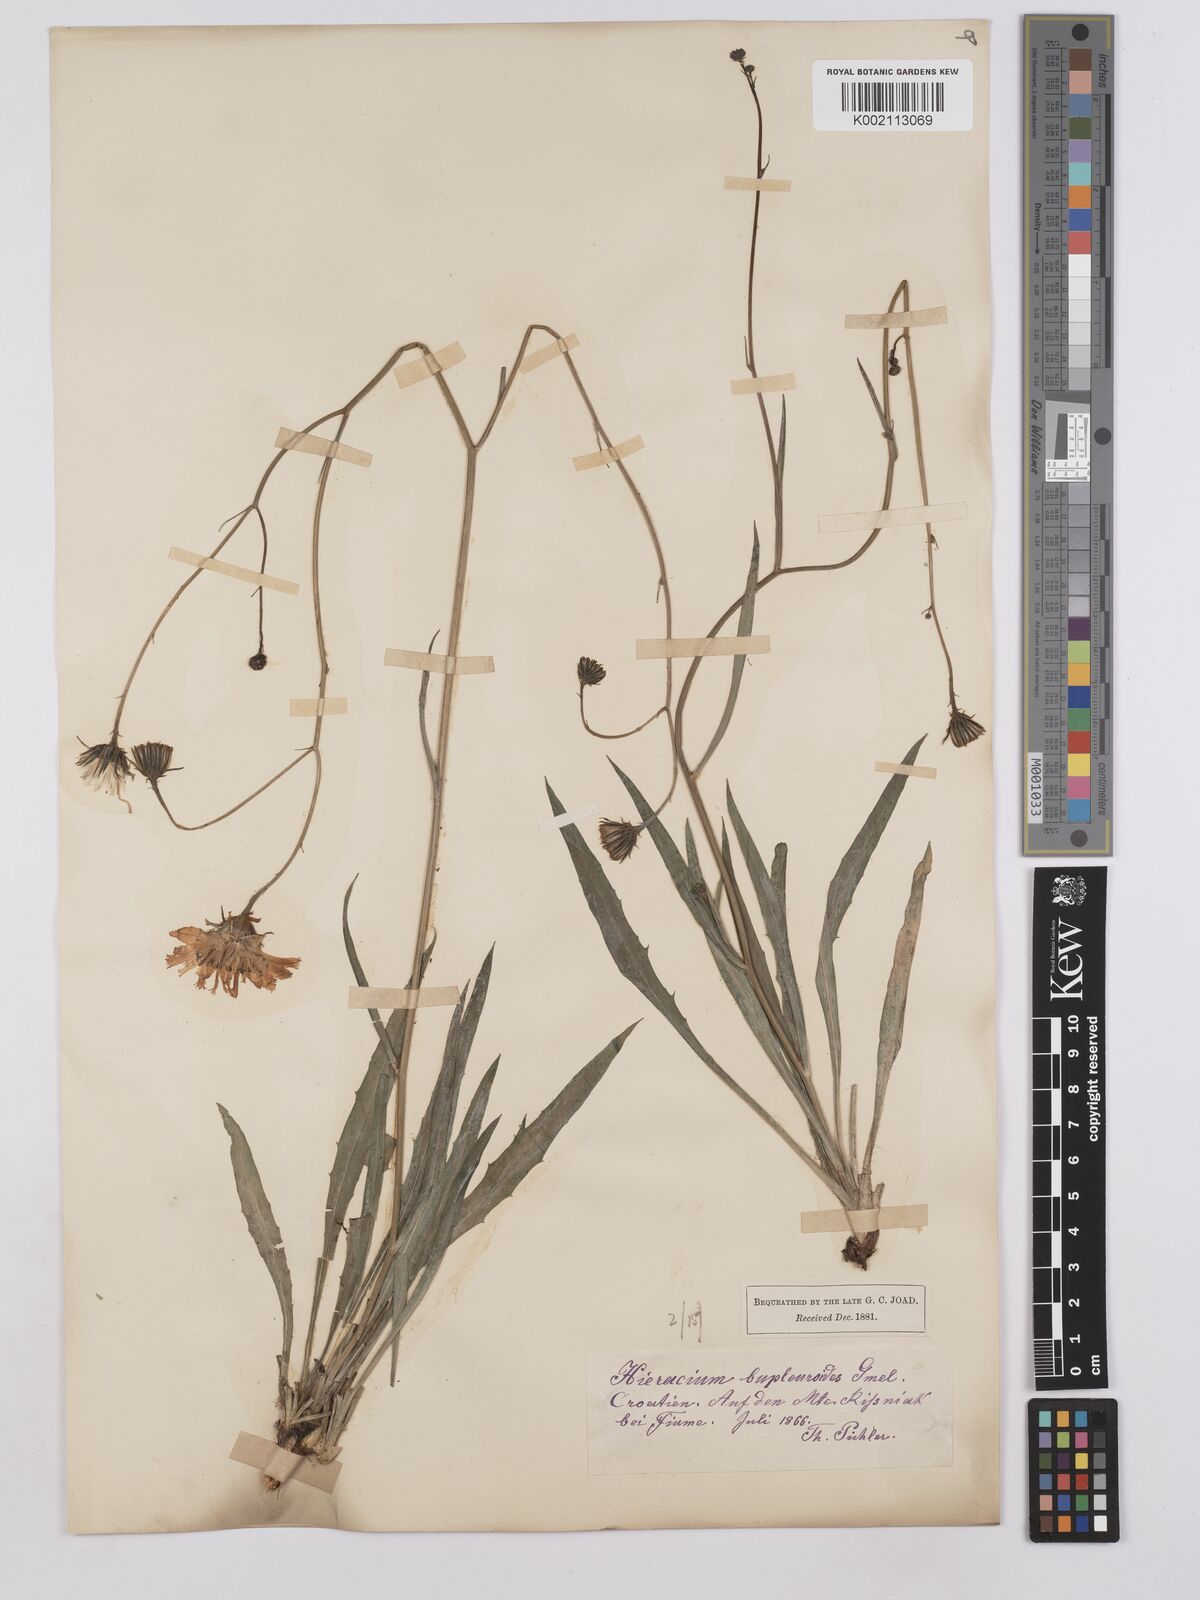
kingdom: Plantae
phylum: Tracheophyta
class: Magnoliopsida
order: Asterales
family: Asteraceae
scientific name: Asteraceae
